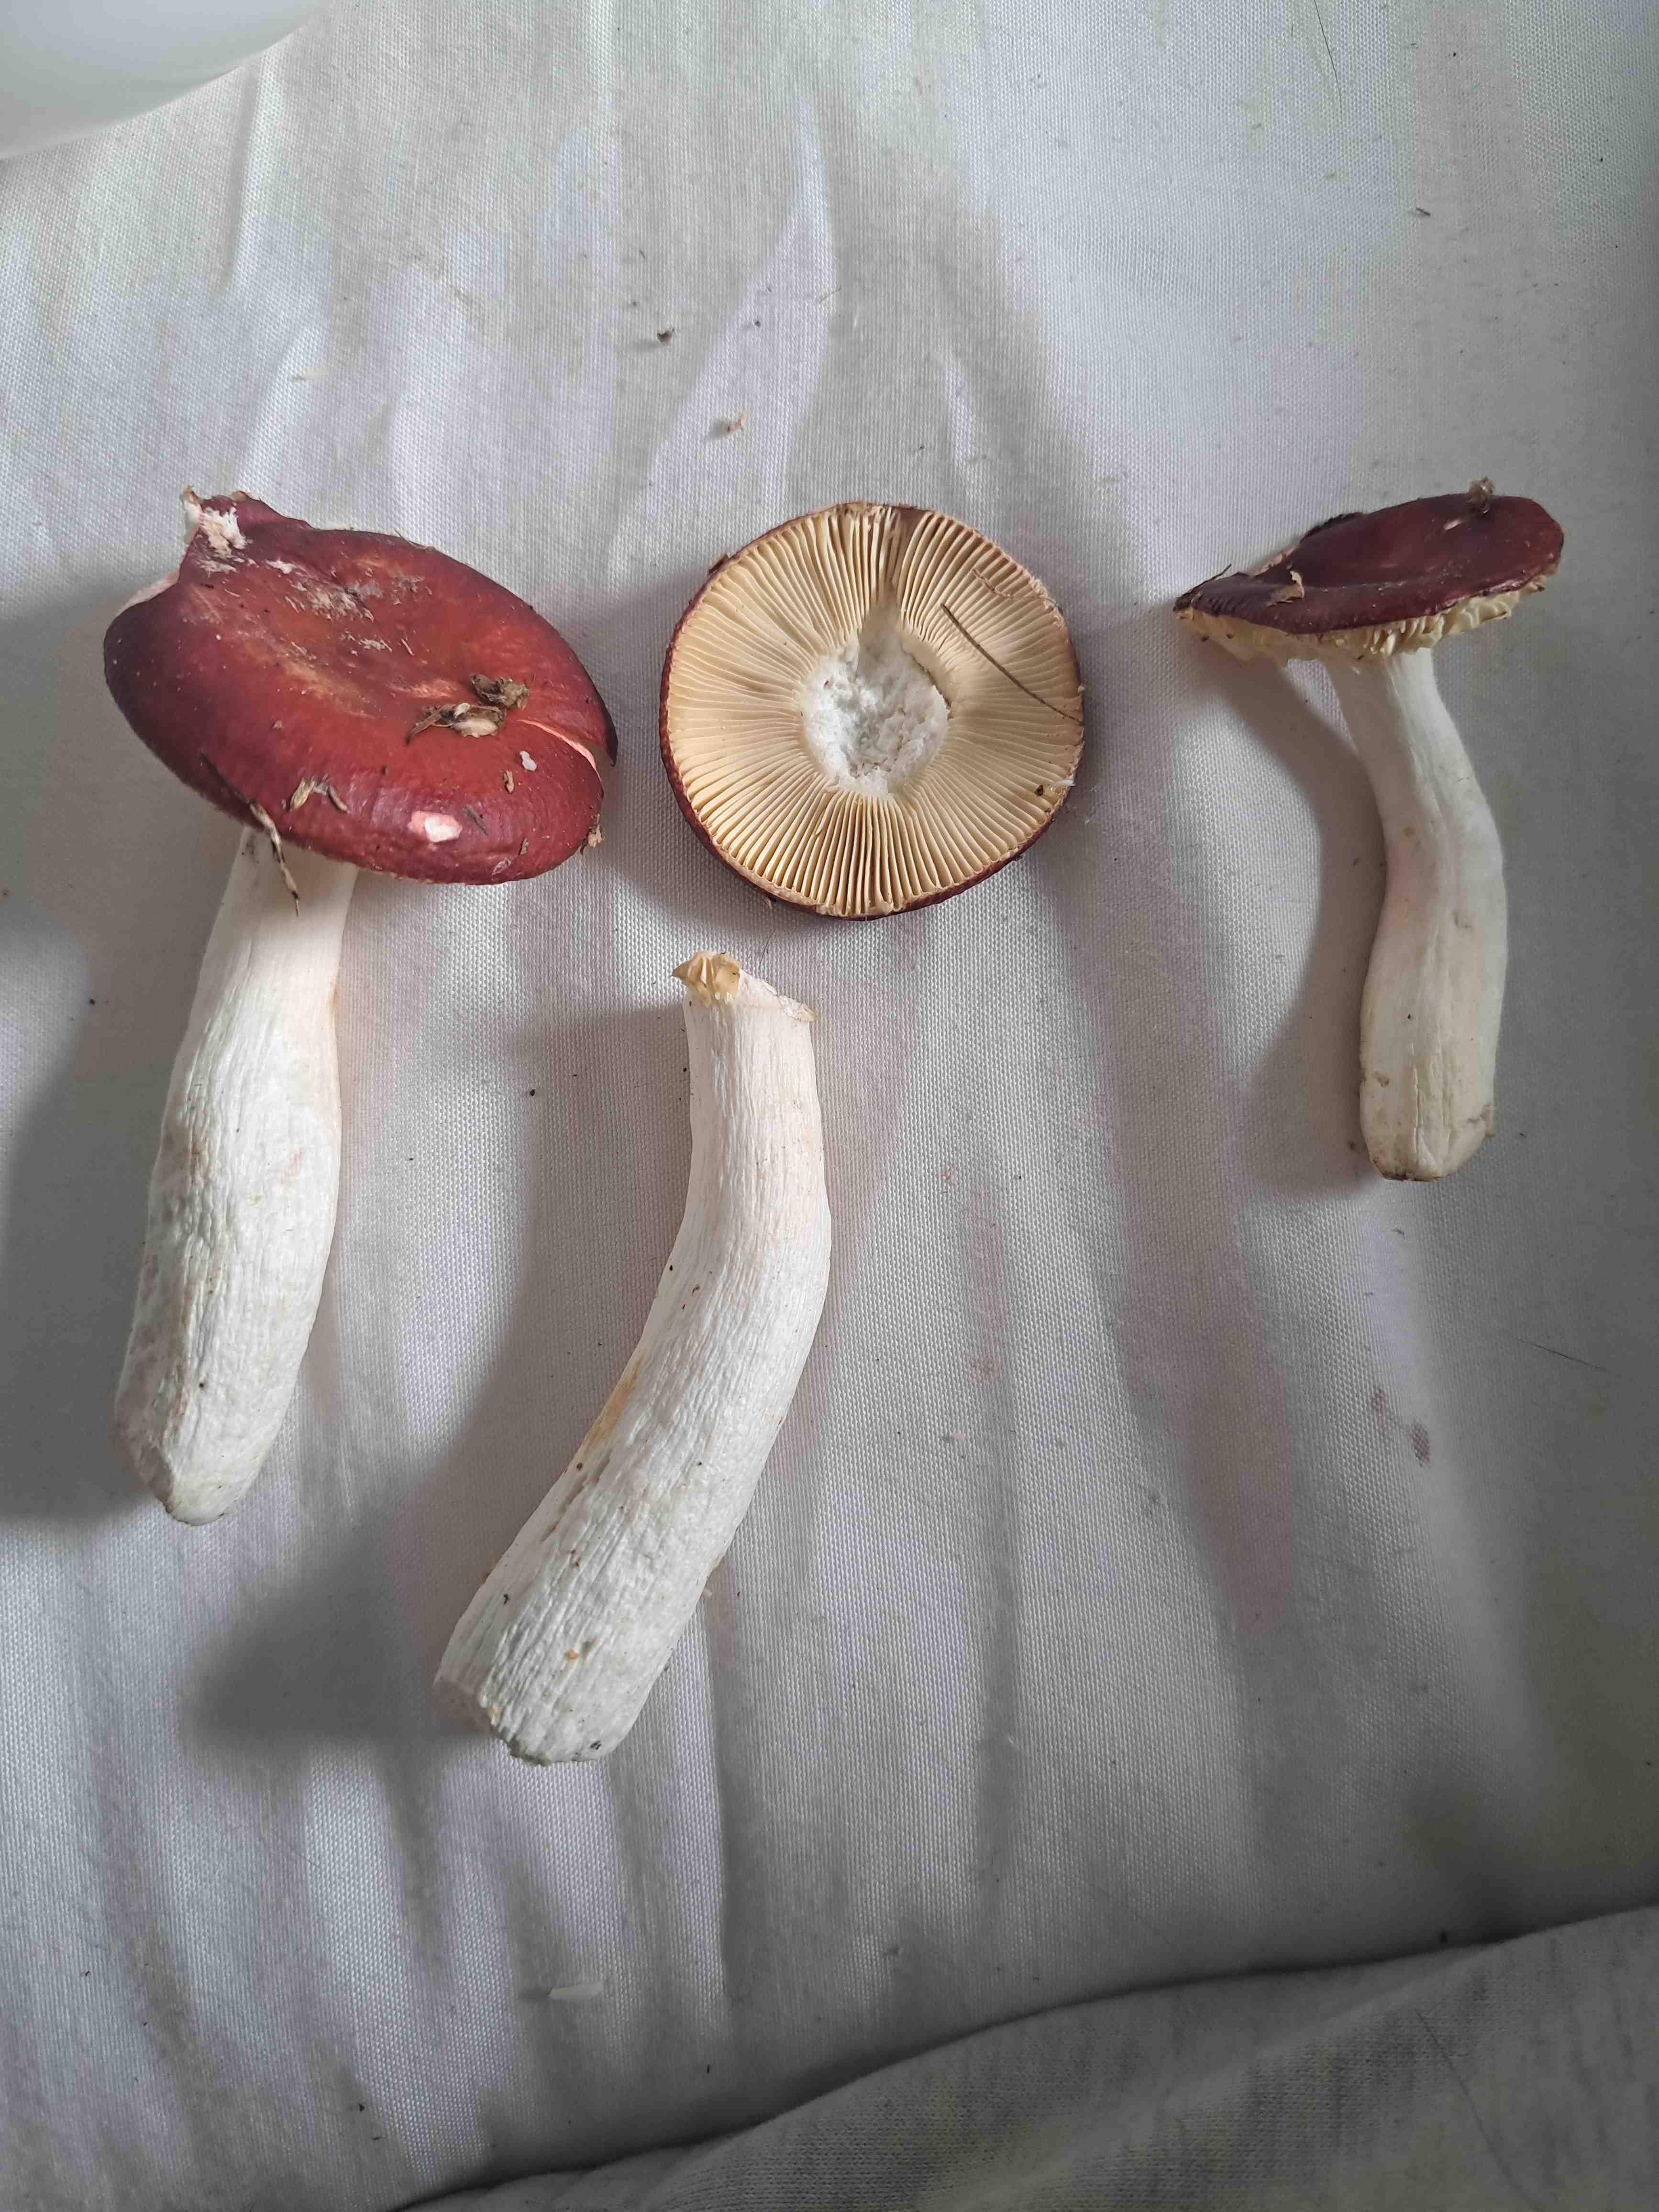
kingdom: Fungi
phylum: Basidiomycota
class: Agaricomycetes
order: Russulales
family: Russulaceae
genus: Russula
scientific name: Russula paludosa
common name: prægtig skørhat
